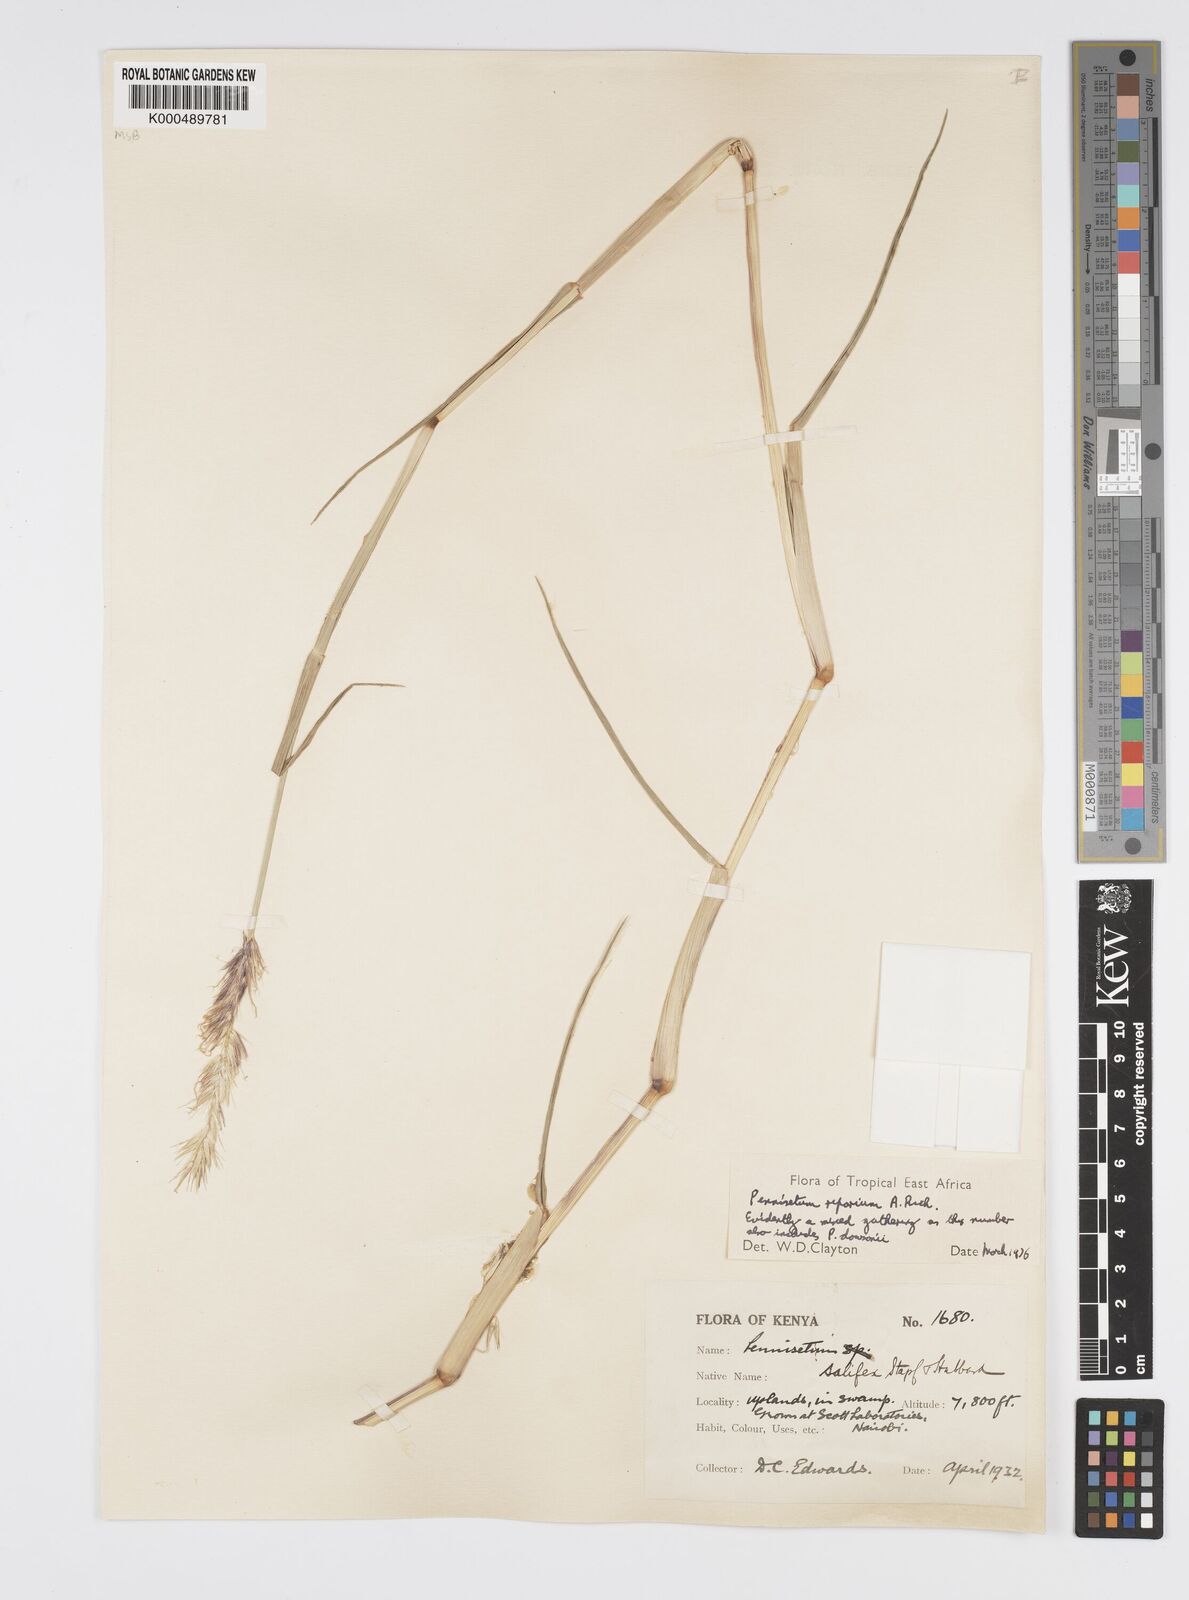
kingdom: Plantae
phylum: Tracheophyta
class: Liliopsida
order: Poales
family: Poaceae
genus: Cenchrus
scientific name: Cenchrus Pennisetum spec
